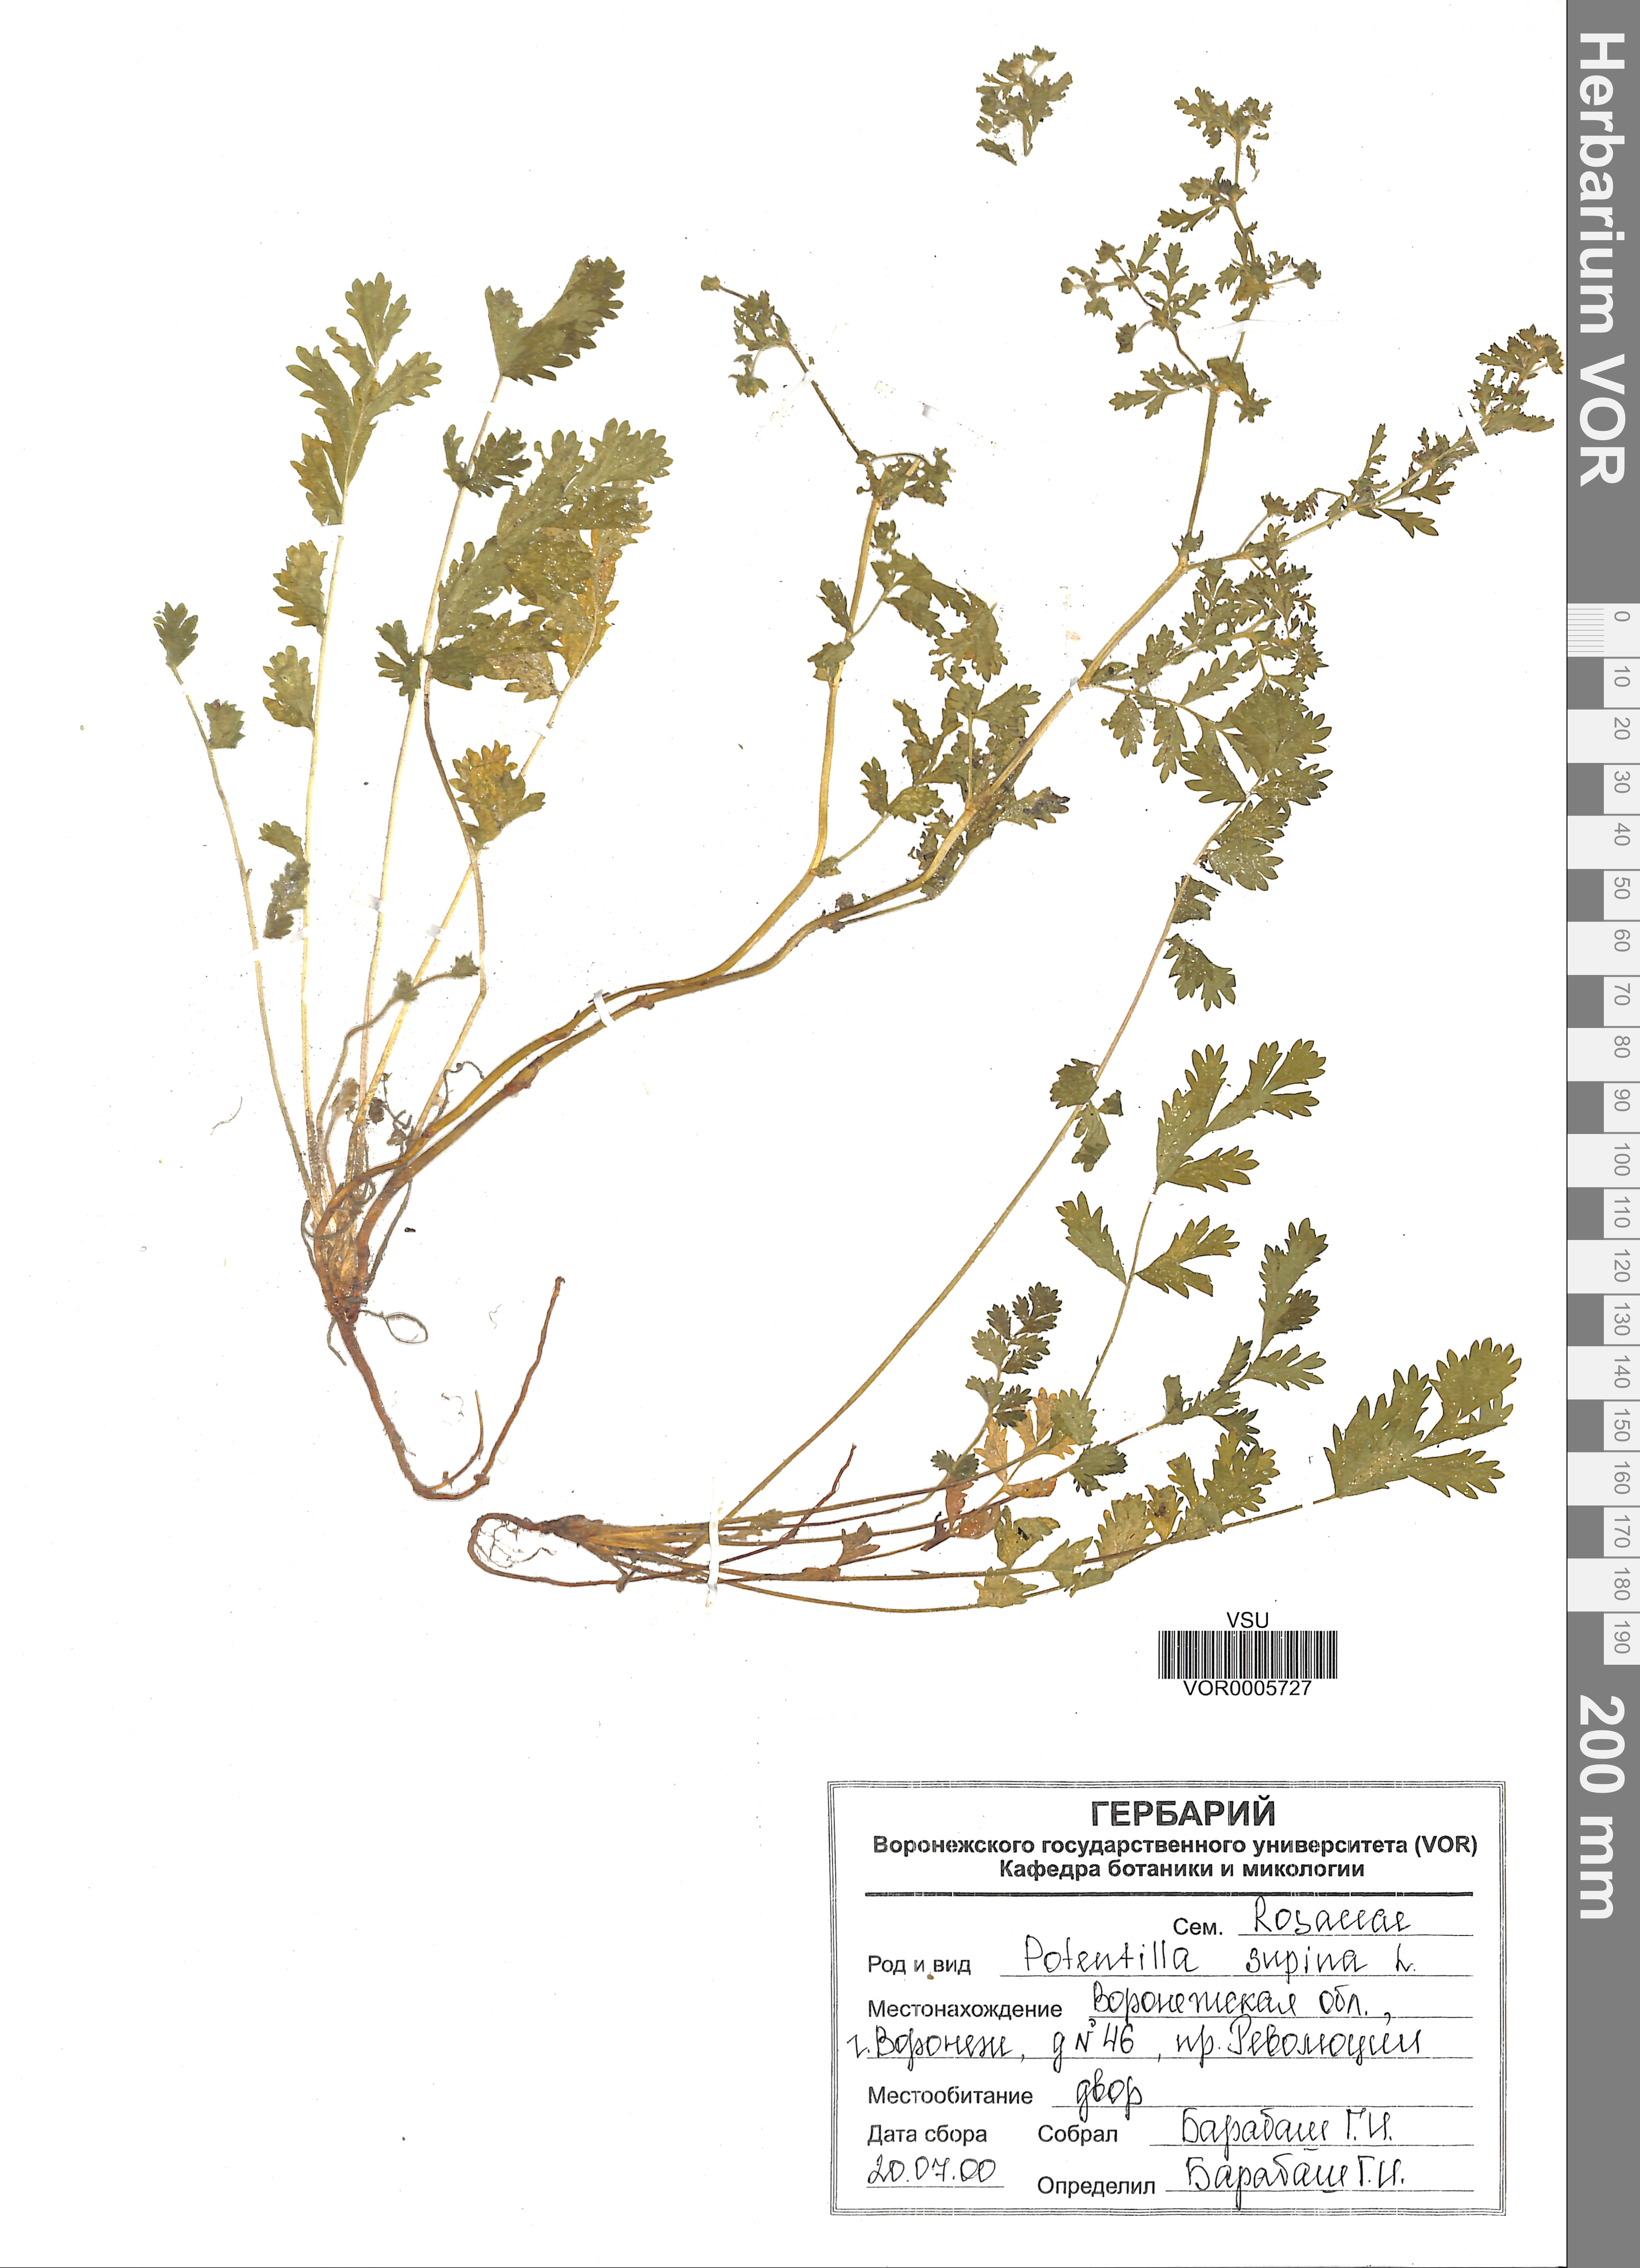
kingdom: Plantae
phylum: Tracheophyta
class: Magnoliopsida
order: Rosales
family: Rosaceae
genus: Potentilla
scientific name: Potentilla supina
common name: Prostrate cinquefoil
